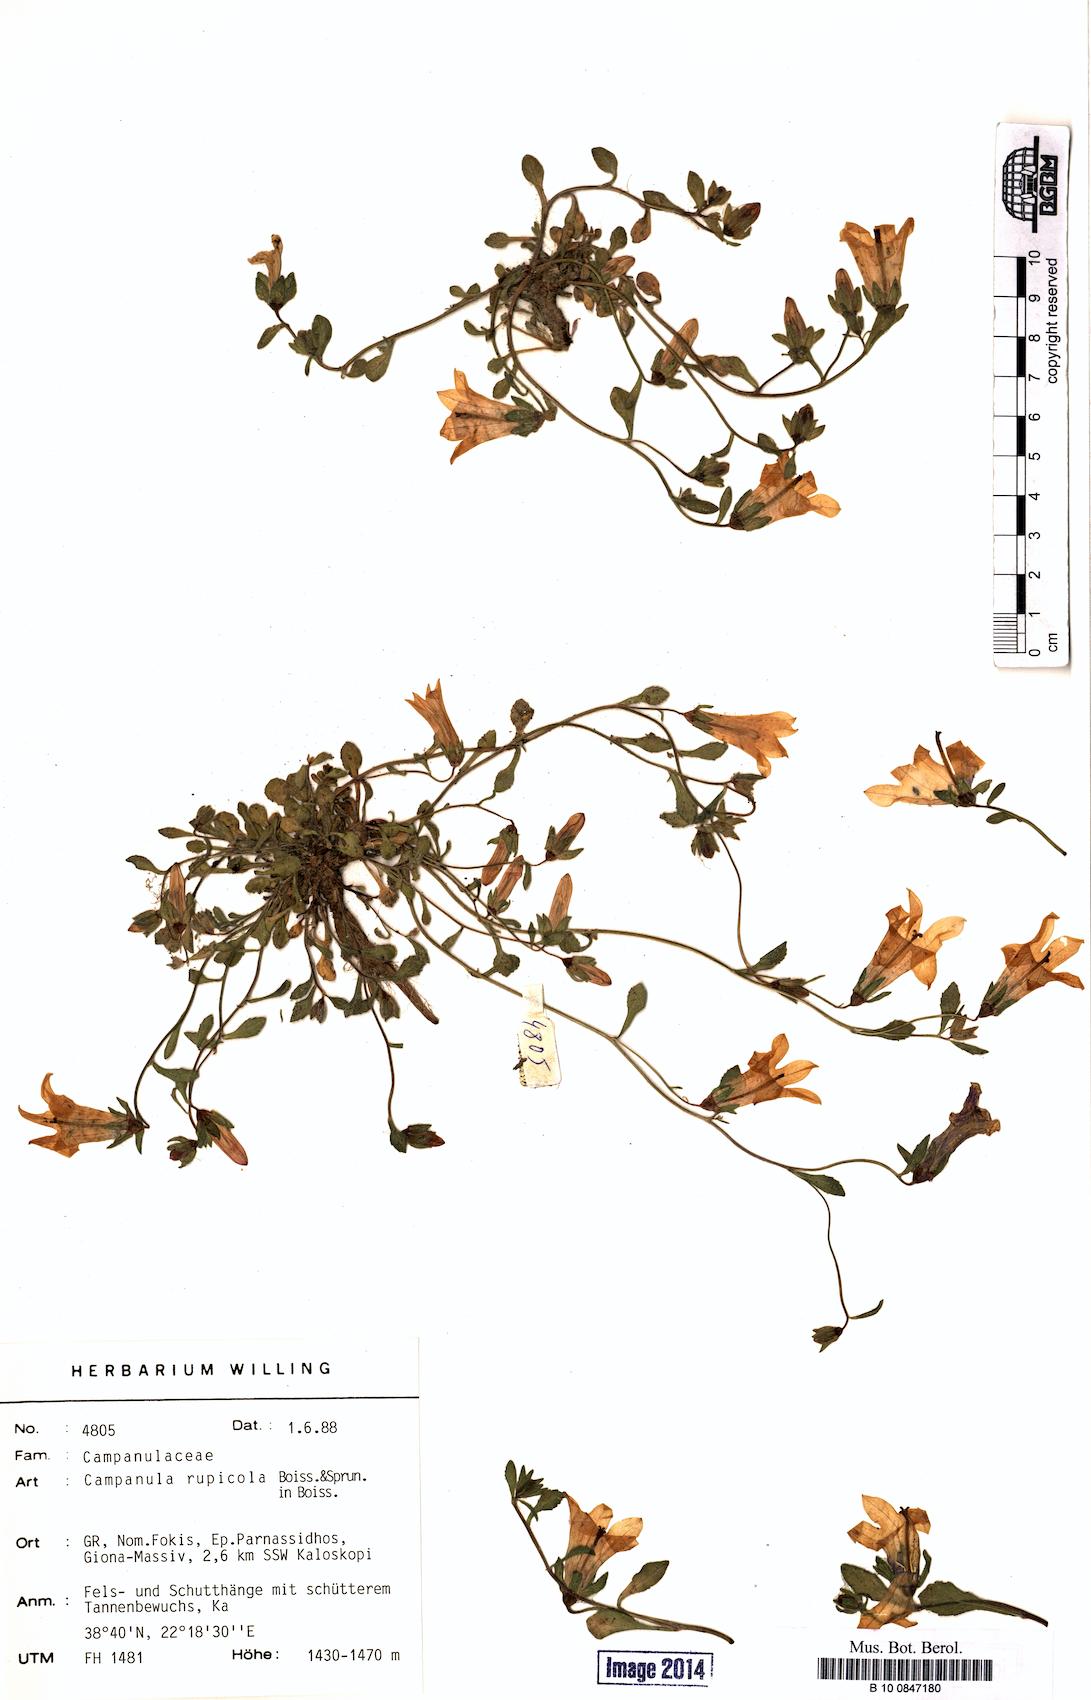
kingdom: Plantae
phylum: Tracheophyta
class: Magnoliopsida
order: Asterales
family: Campanulaceae
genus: Campanula
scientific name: Campanula rupestris
